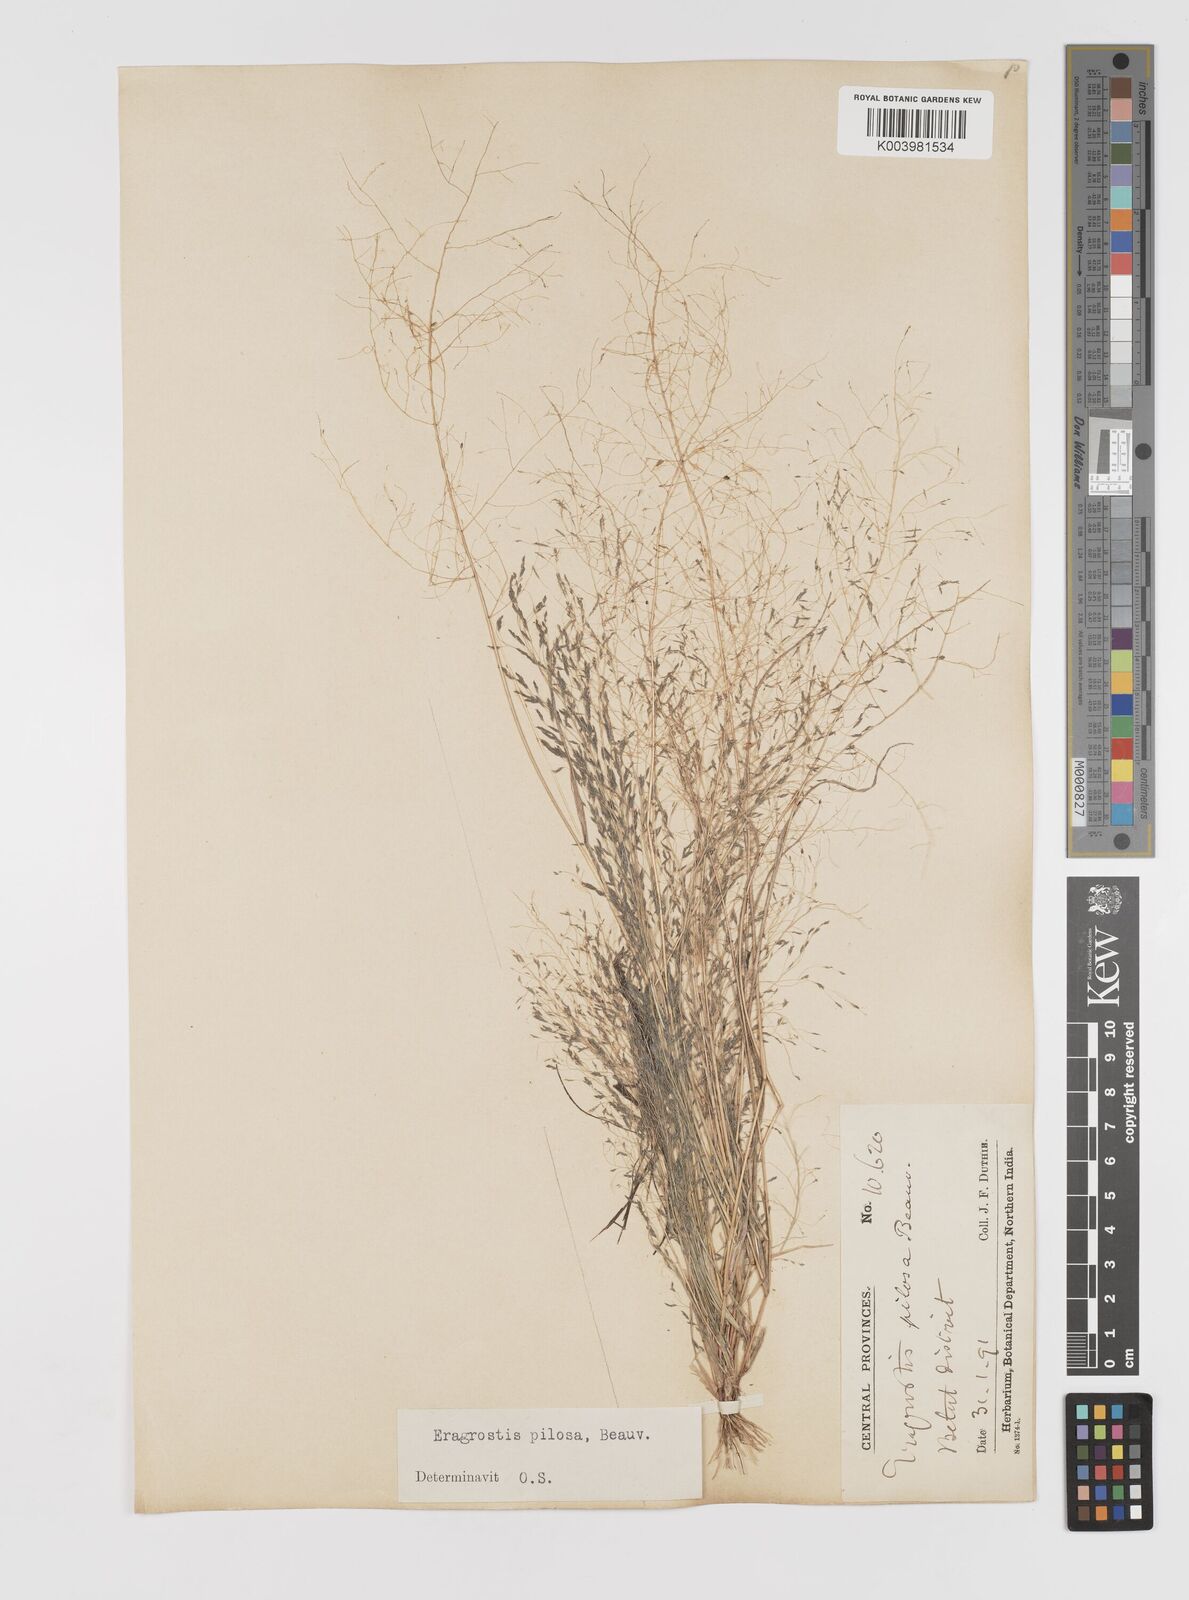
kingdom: Plantae
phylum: Tracheophyta
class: Liliopsida
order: Poales
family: Poaceae
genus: Eragrostis
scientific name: Eragrostis pilosa
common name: Indian lovegrass
